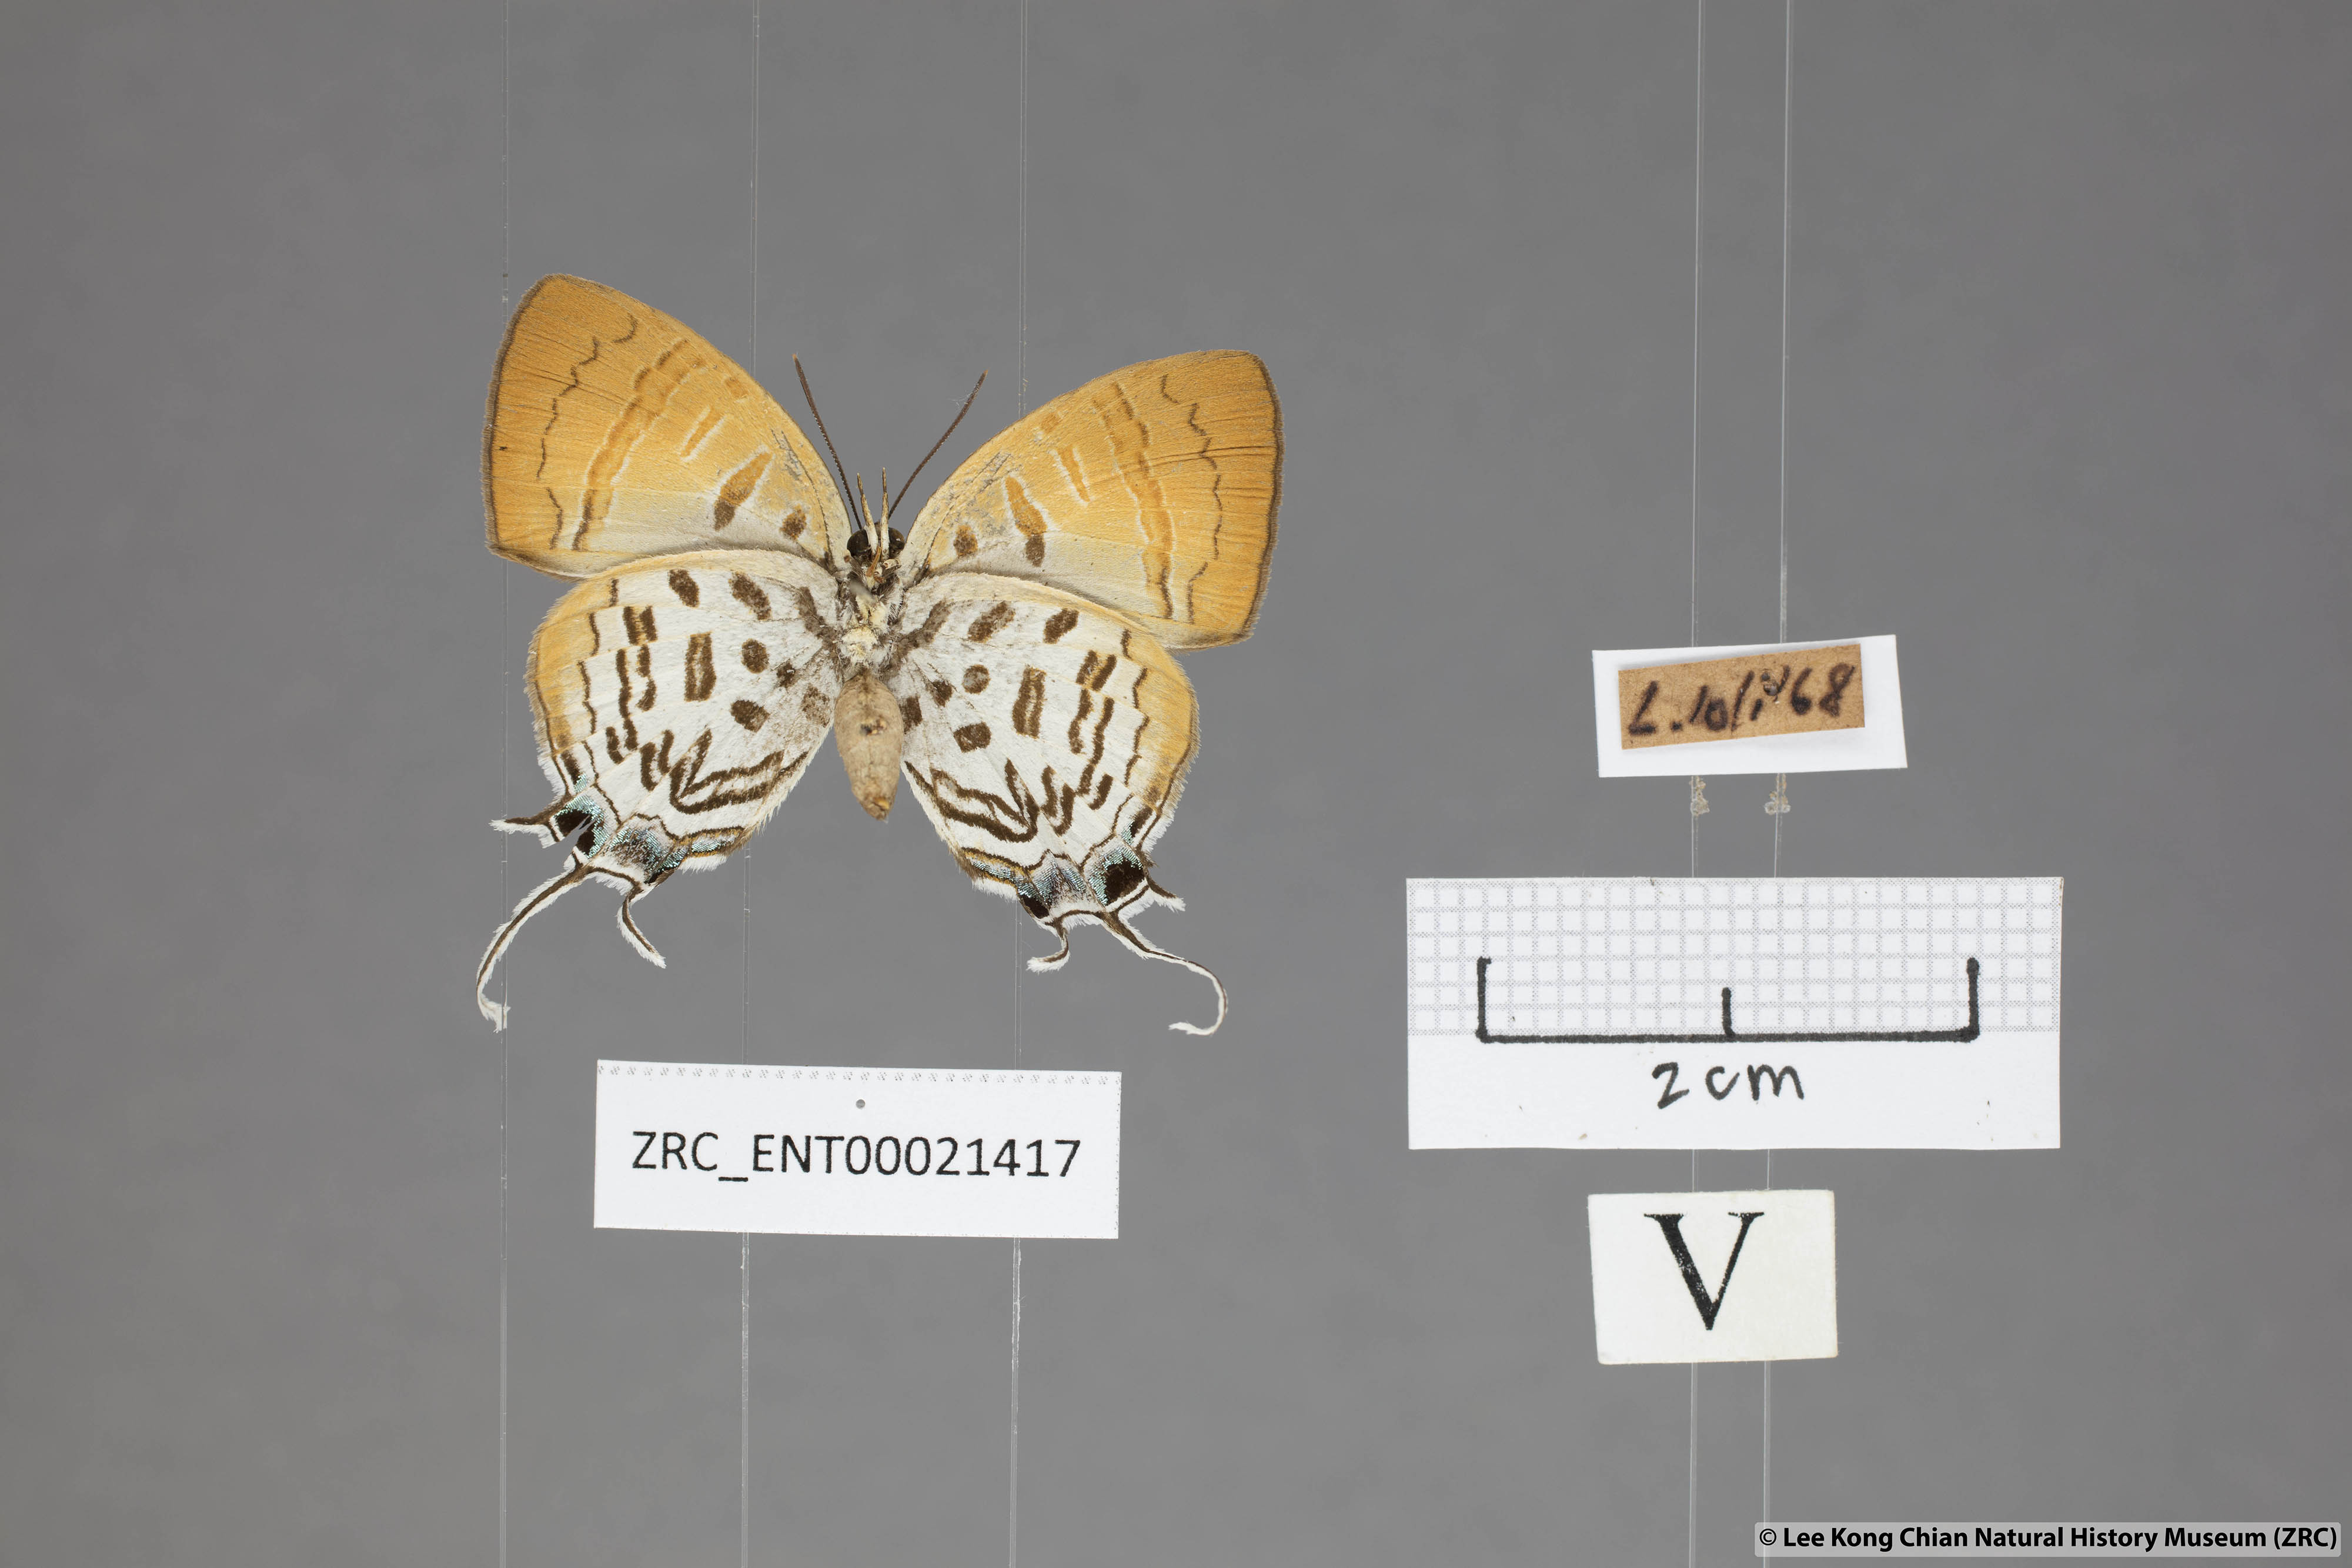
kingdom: Animalia
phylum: Arthropoda
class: Insecta
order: Lepidoptera
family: Lycaenidae
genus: Drupadia
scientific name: Drupadia theda
